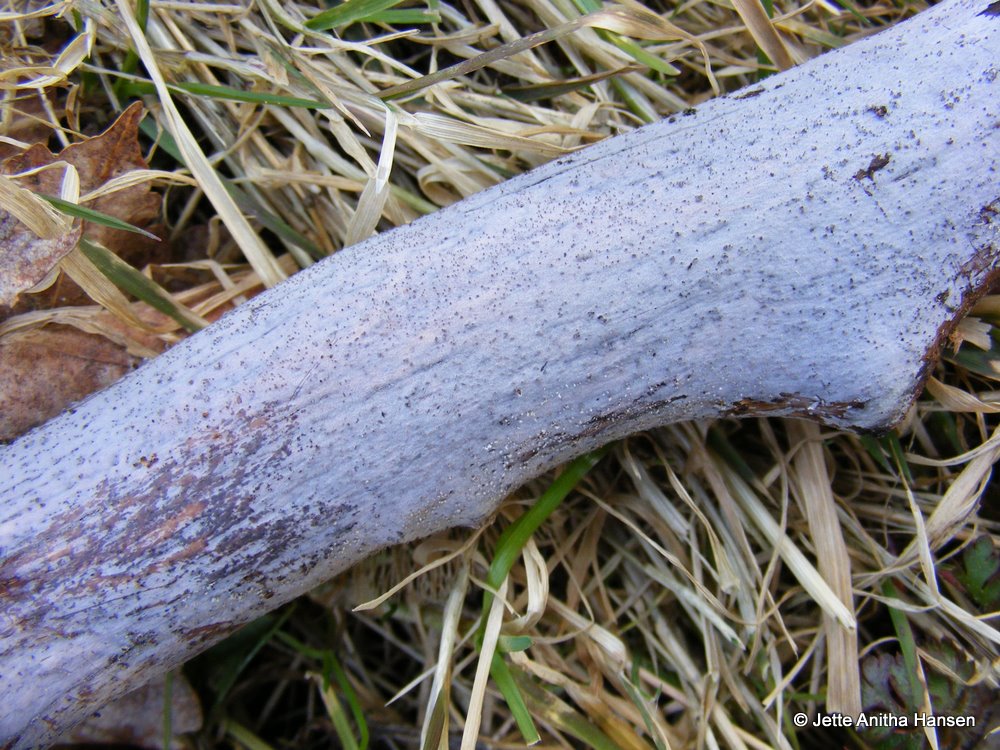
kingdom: Fungi
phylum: Basidiomycota
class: Tremellomycetes
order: Tremellales
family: Exidiaceae
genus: Exidiopsis
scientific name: Exidiopsis effusa
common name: smuk bævrehinde
